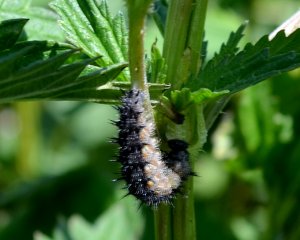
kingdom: Animalia
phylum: Arthropoda
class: Insecta
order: Lepidoptera
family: Nymphalidae
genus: Aglais
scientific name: Aglais milberti
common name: Milbert's Tortoiseshell
